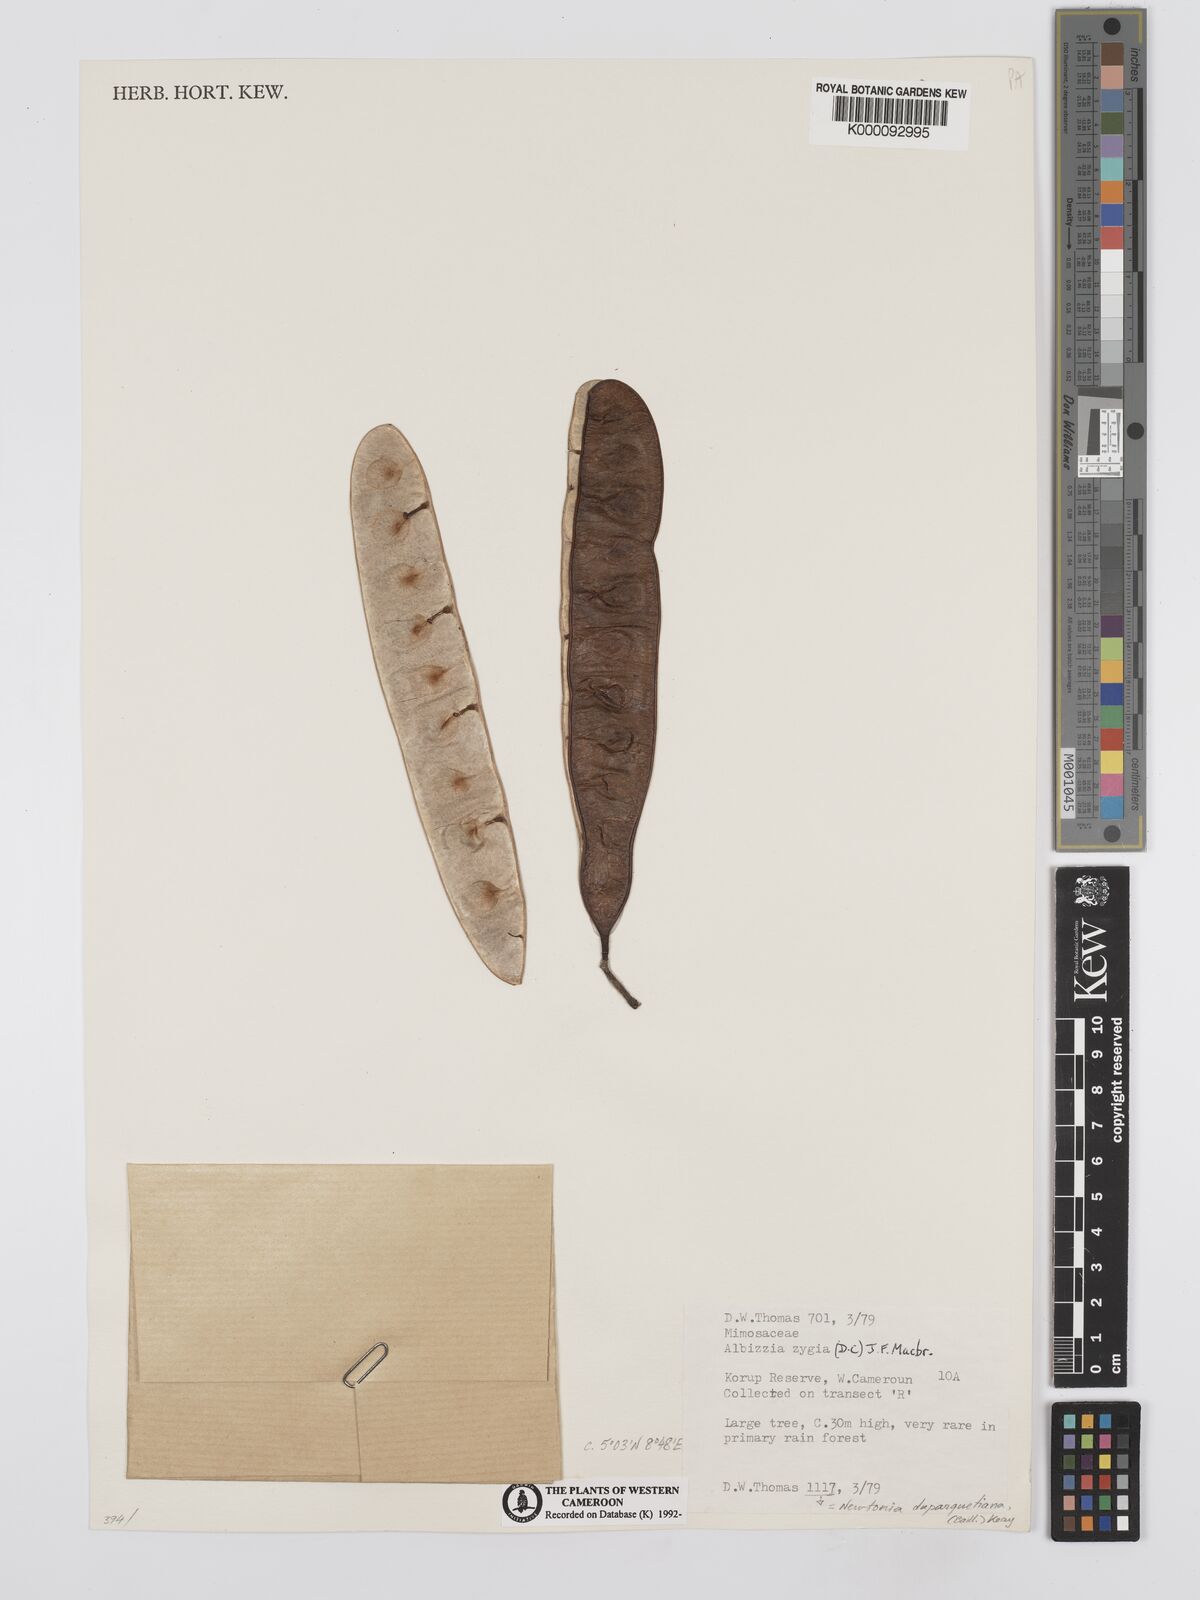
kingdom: Plantae
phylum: Tracheophyta
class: Magnoliopsida
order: Fabales
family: Fabaceae
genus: Albizia
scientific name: Albizia zygia
